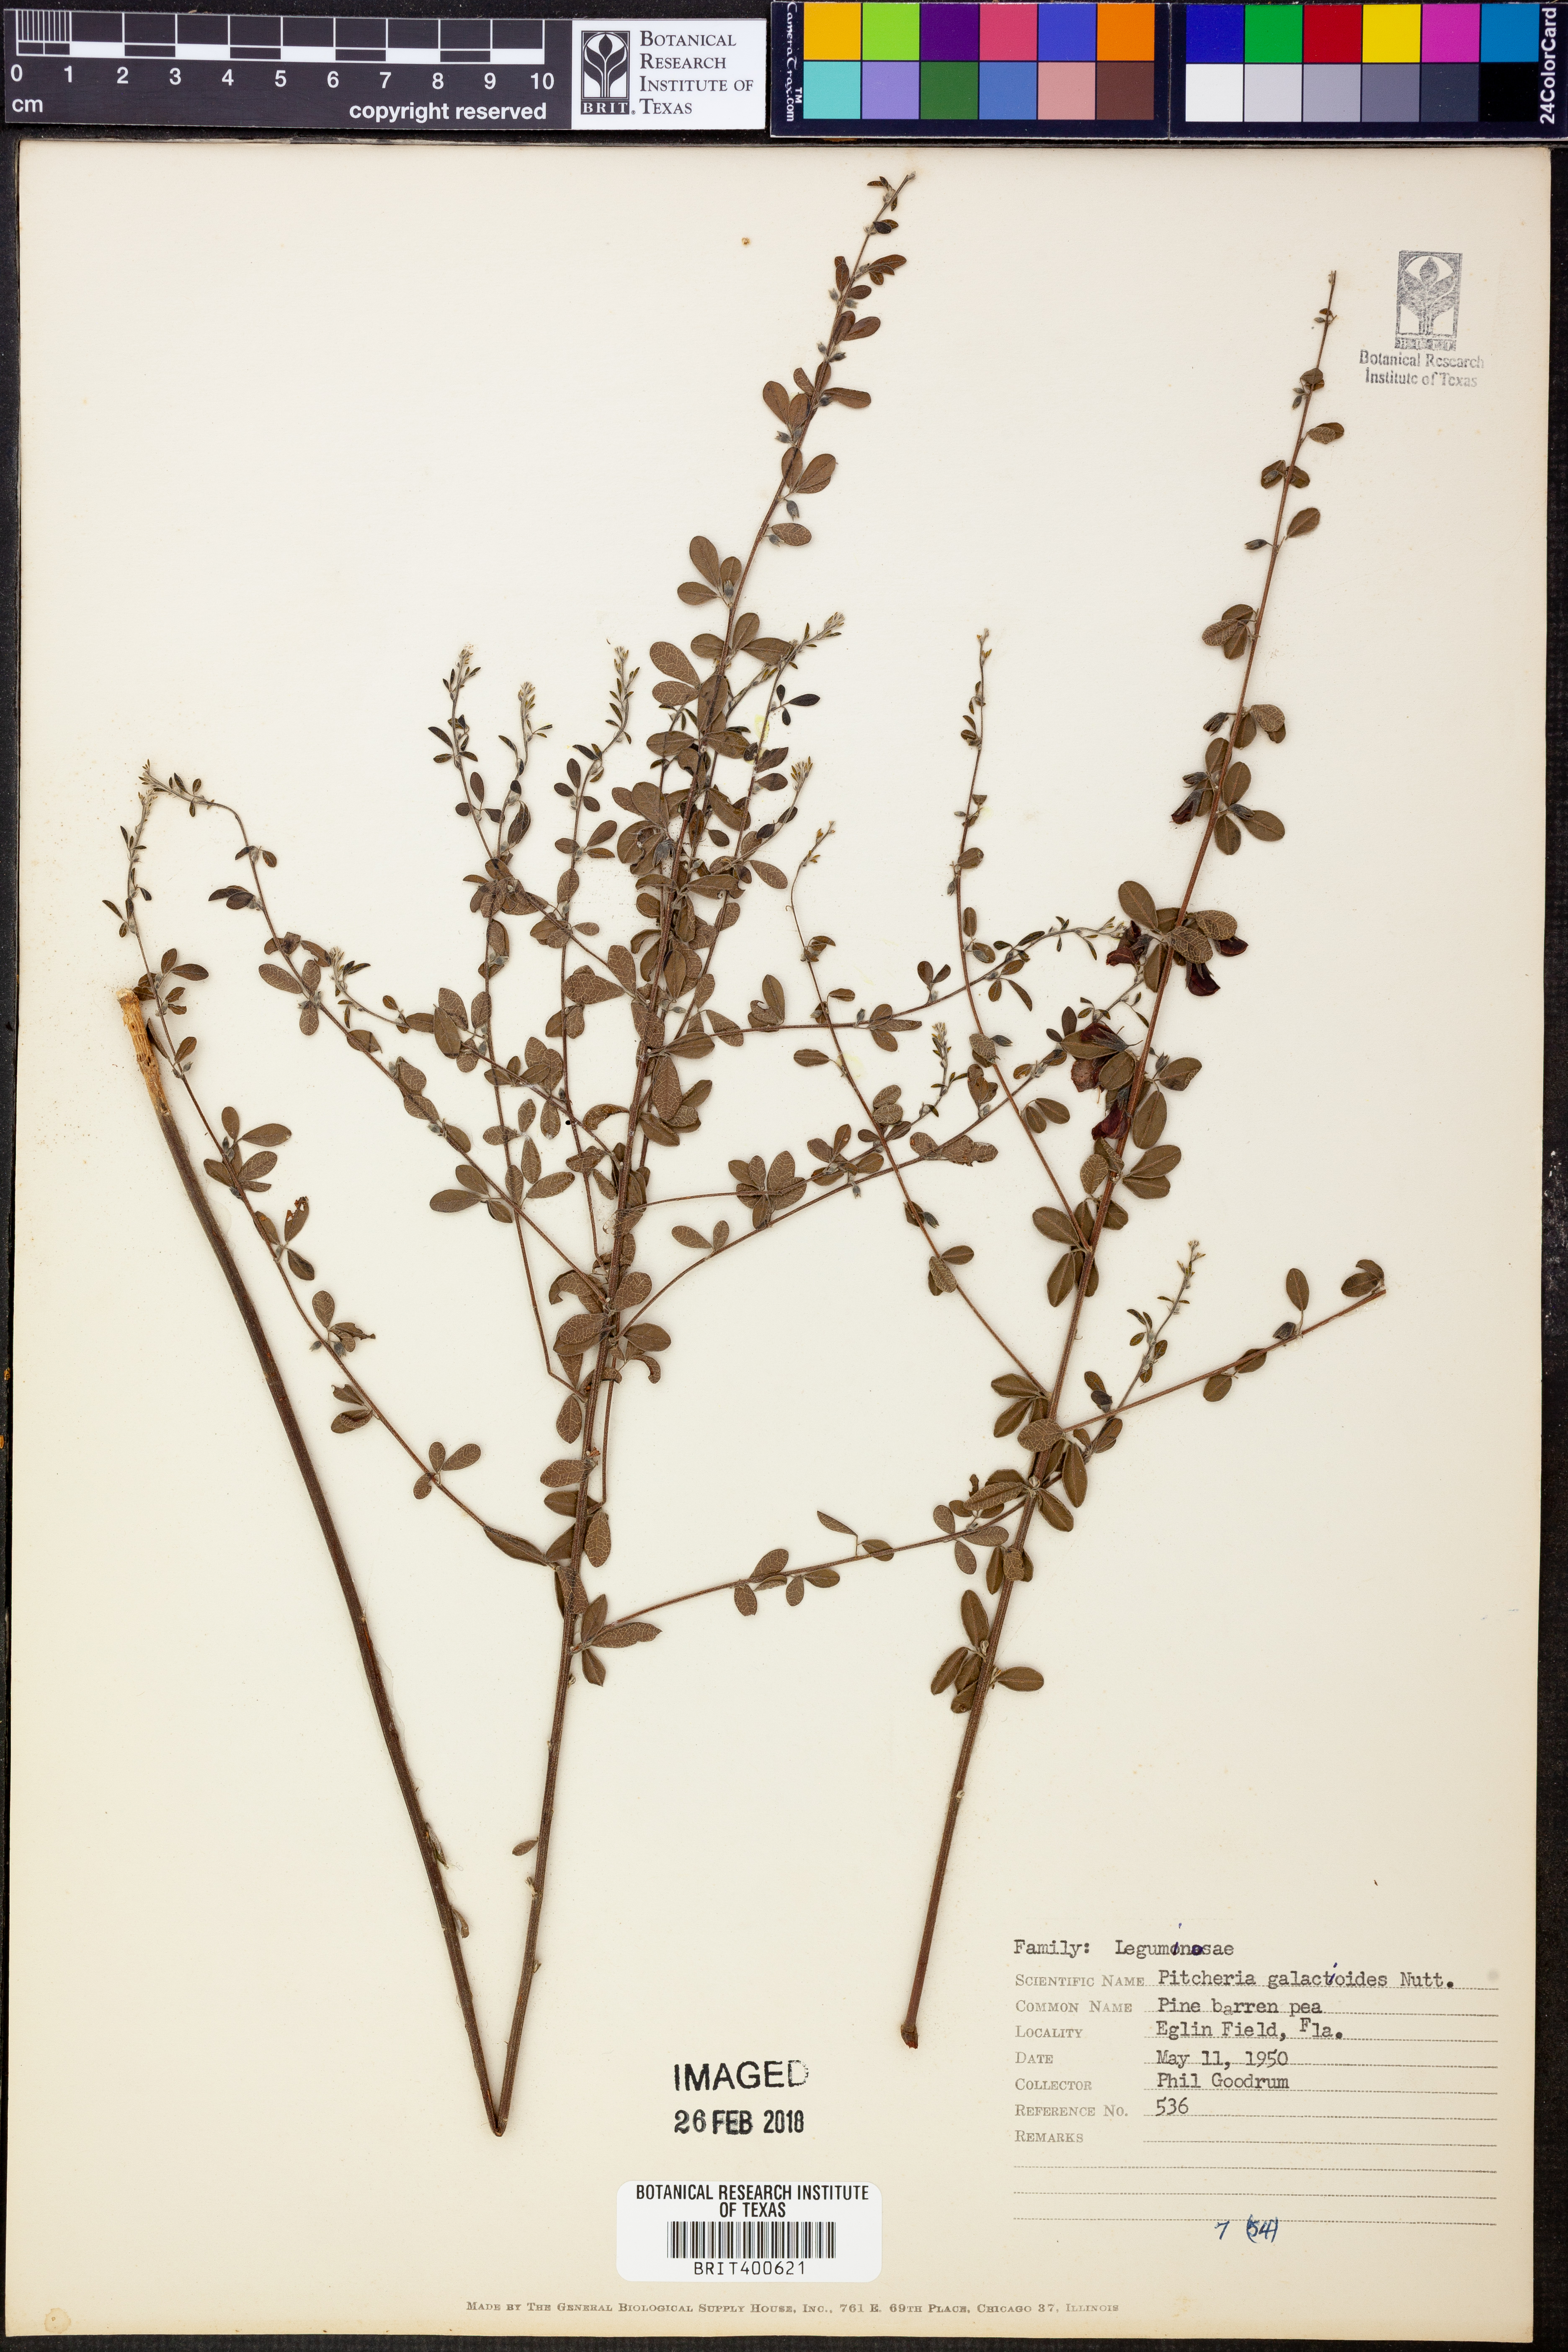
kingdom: Plantae
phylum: Tracheophyta
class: Magnoliopsida
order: Fabales
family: Fabaceae
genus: Rhynchosia
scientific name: Rhynchosia cytisoides
